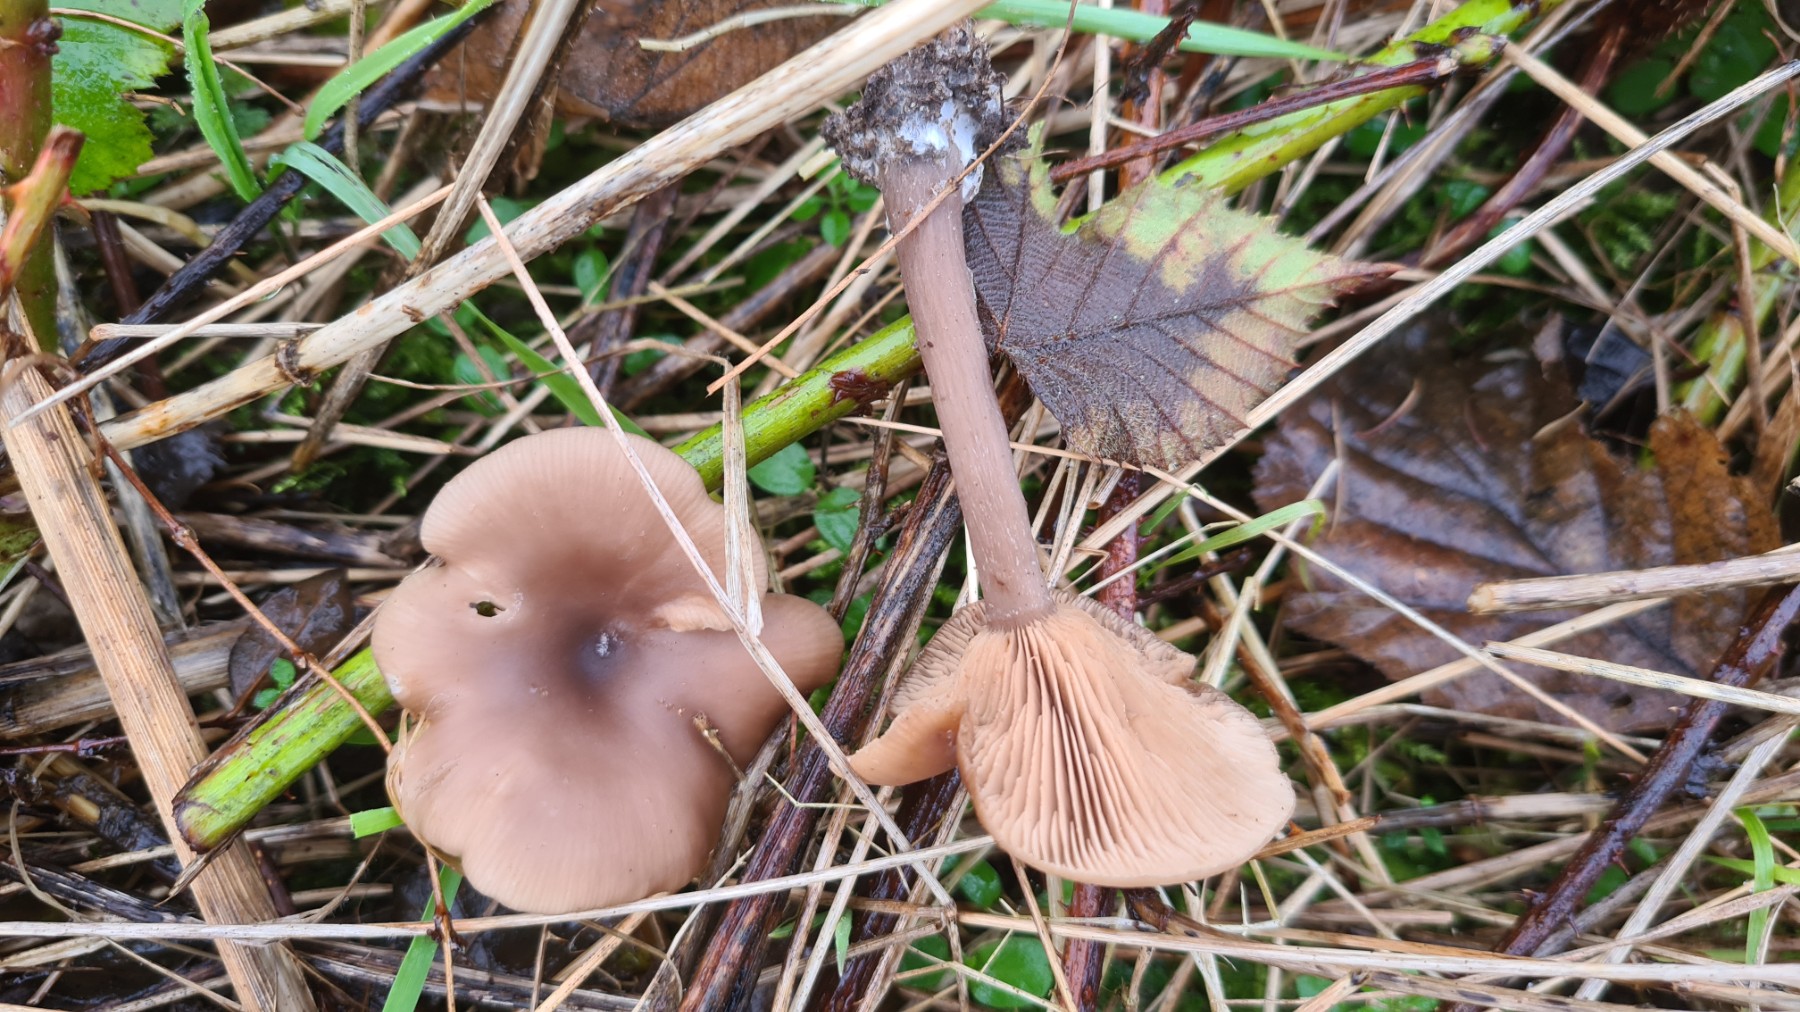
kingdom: Fungi
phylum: Basidiomycota
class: Agaricomycetes
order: Agaricales
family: Pseudoclitocybaceae
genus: Pseudoclitocybe
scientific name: Pseudoclitocybe cyathiformis
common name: almindelig bægertragthat
